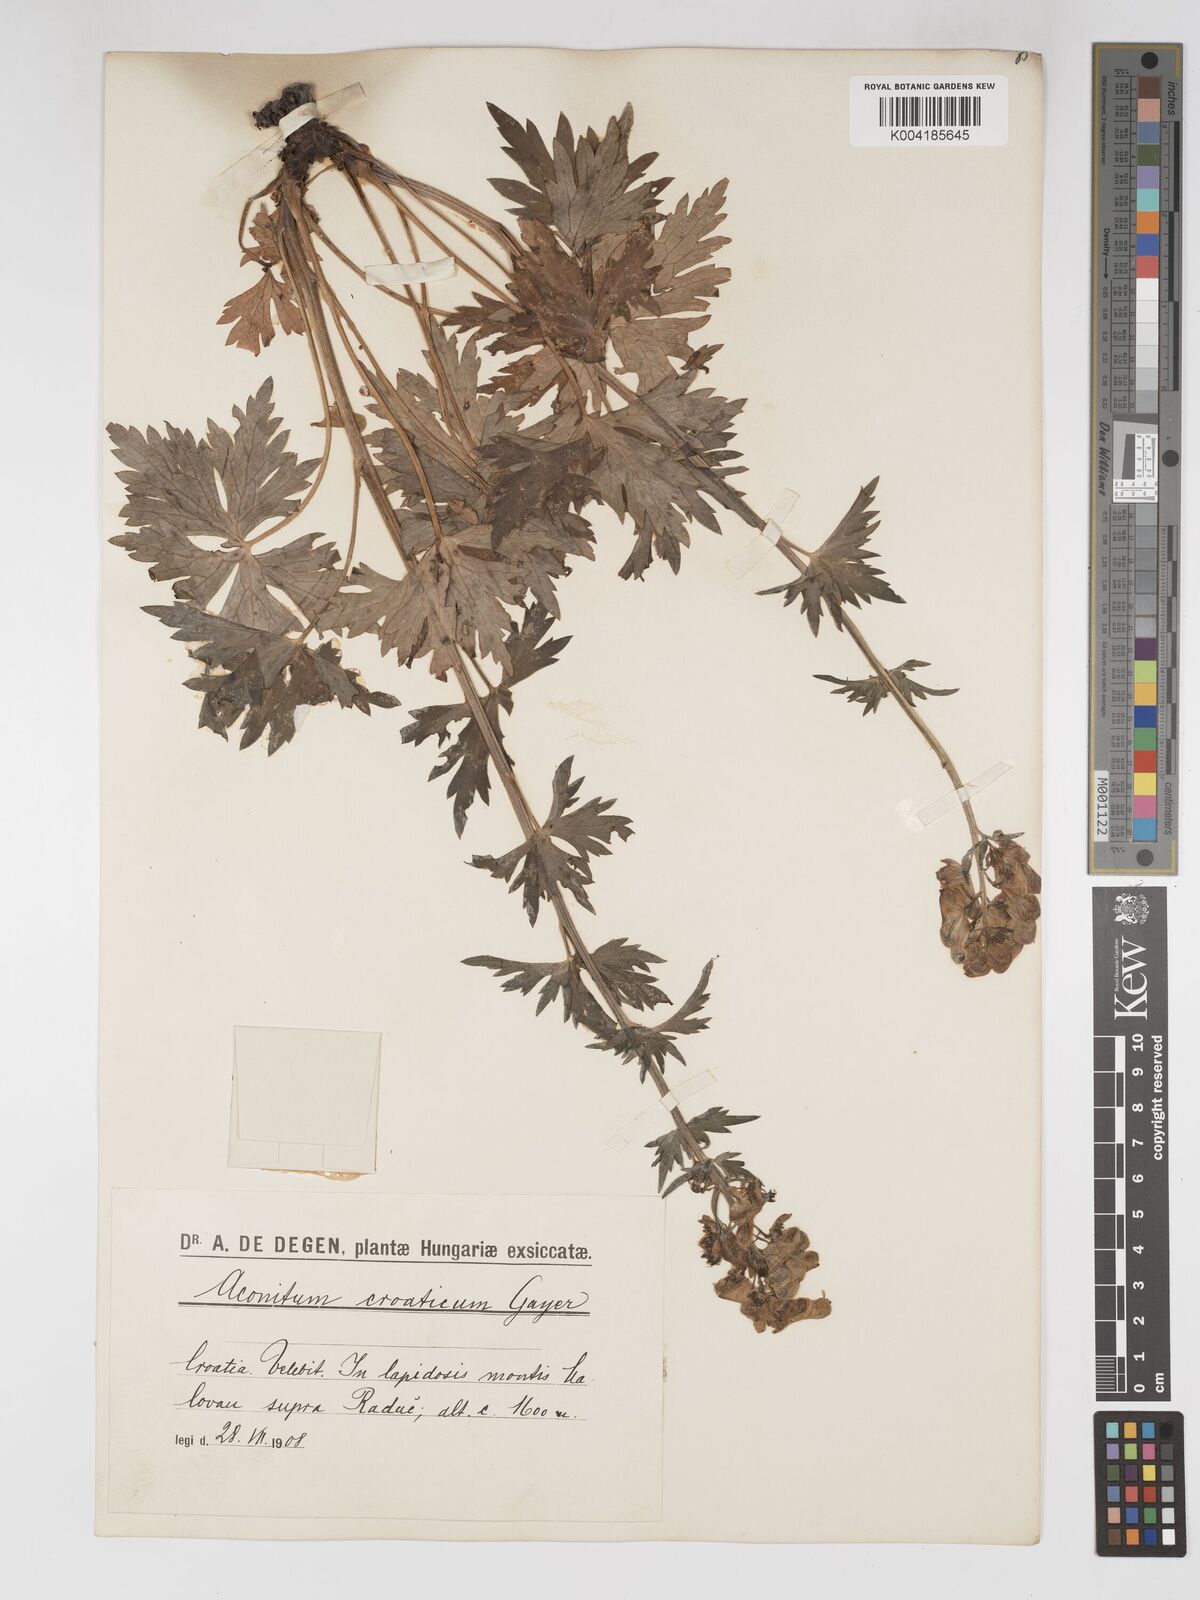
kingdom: Plantae
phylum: Tracheophyta
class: Magnoliopsida
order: Ranunculales
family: Ranunculaceae
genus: Aconitum
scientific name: Aconitum lycoctonum
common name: Wolf's-bane
